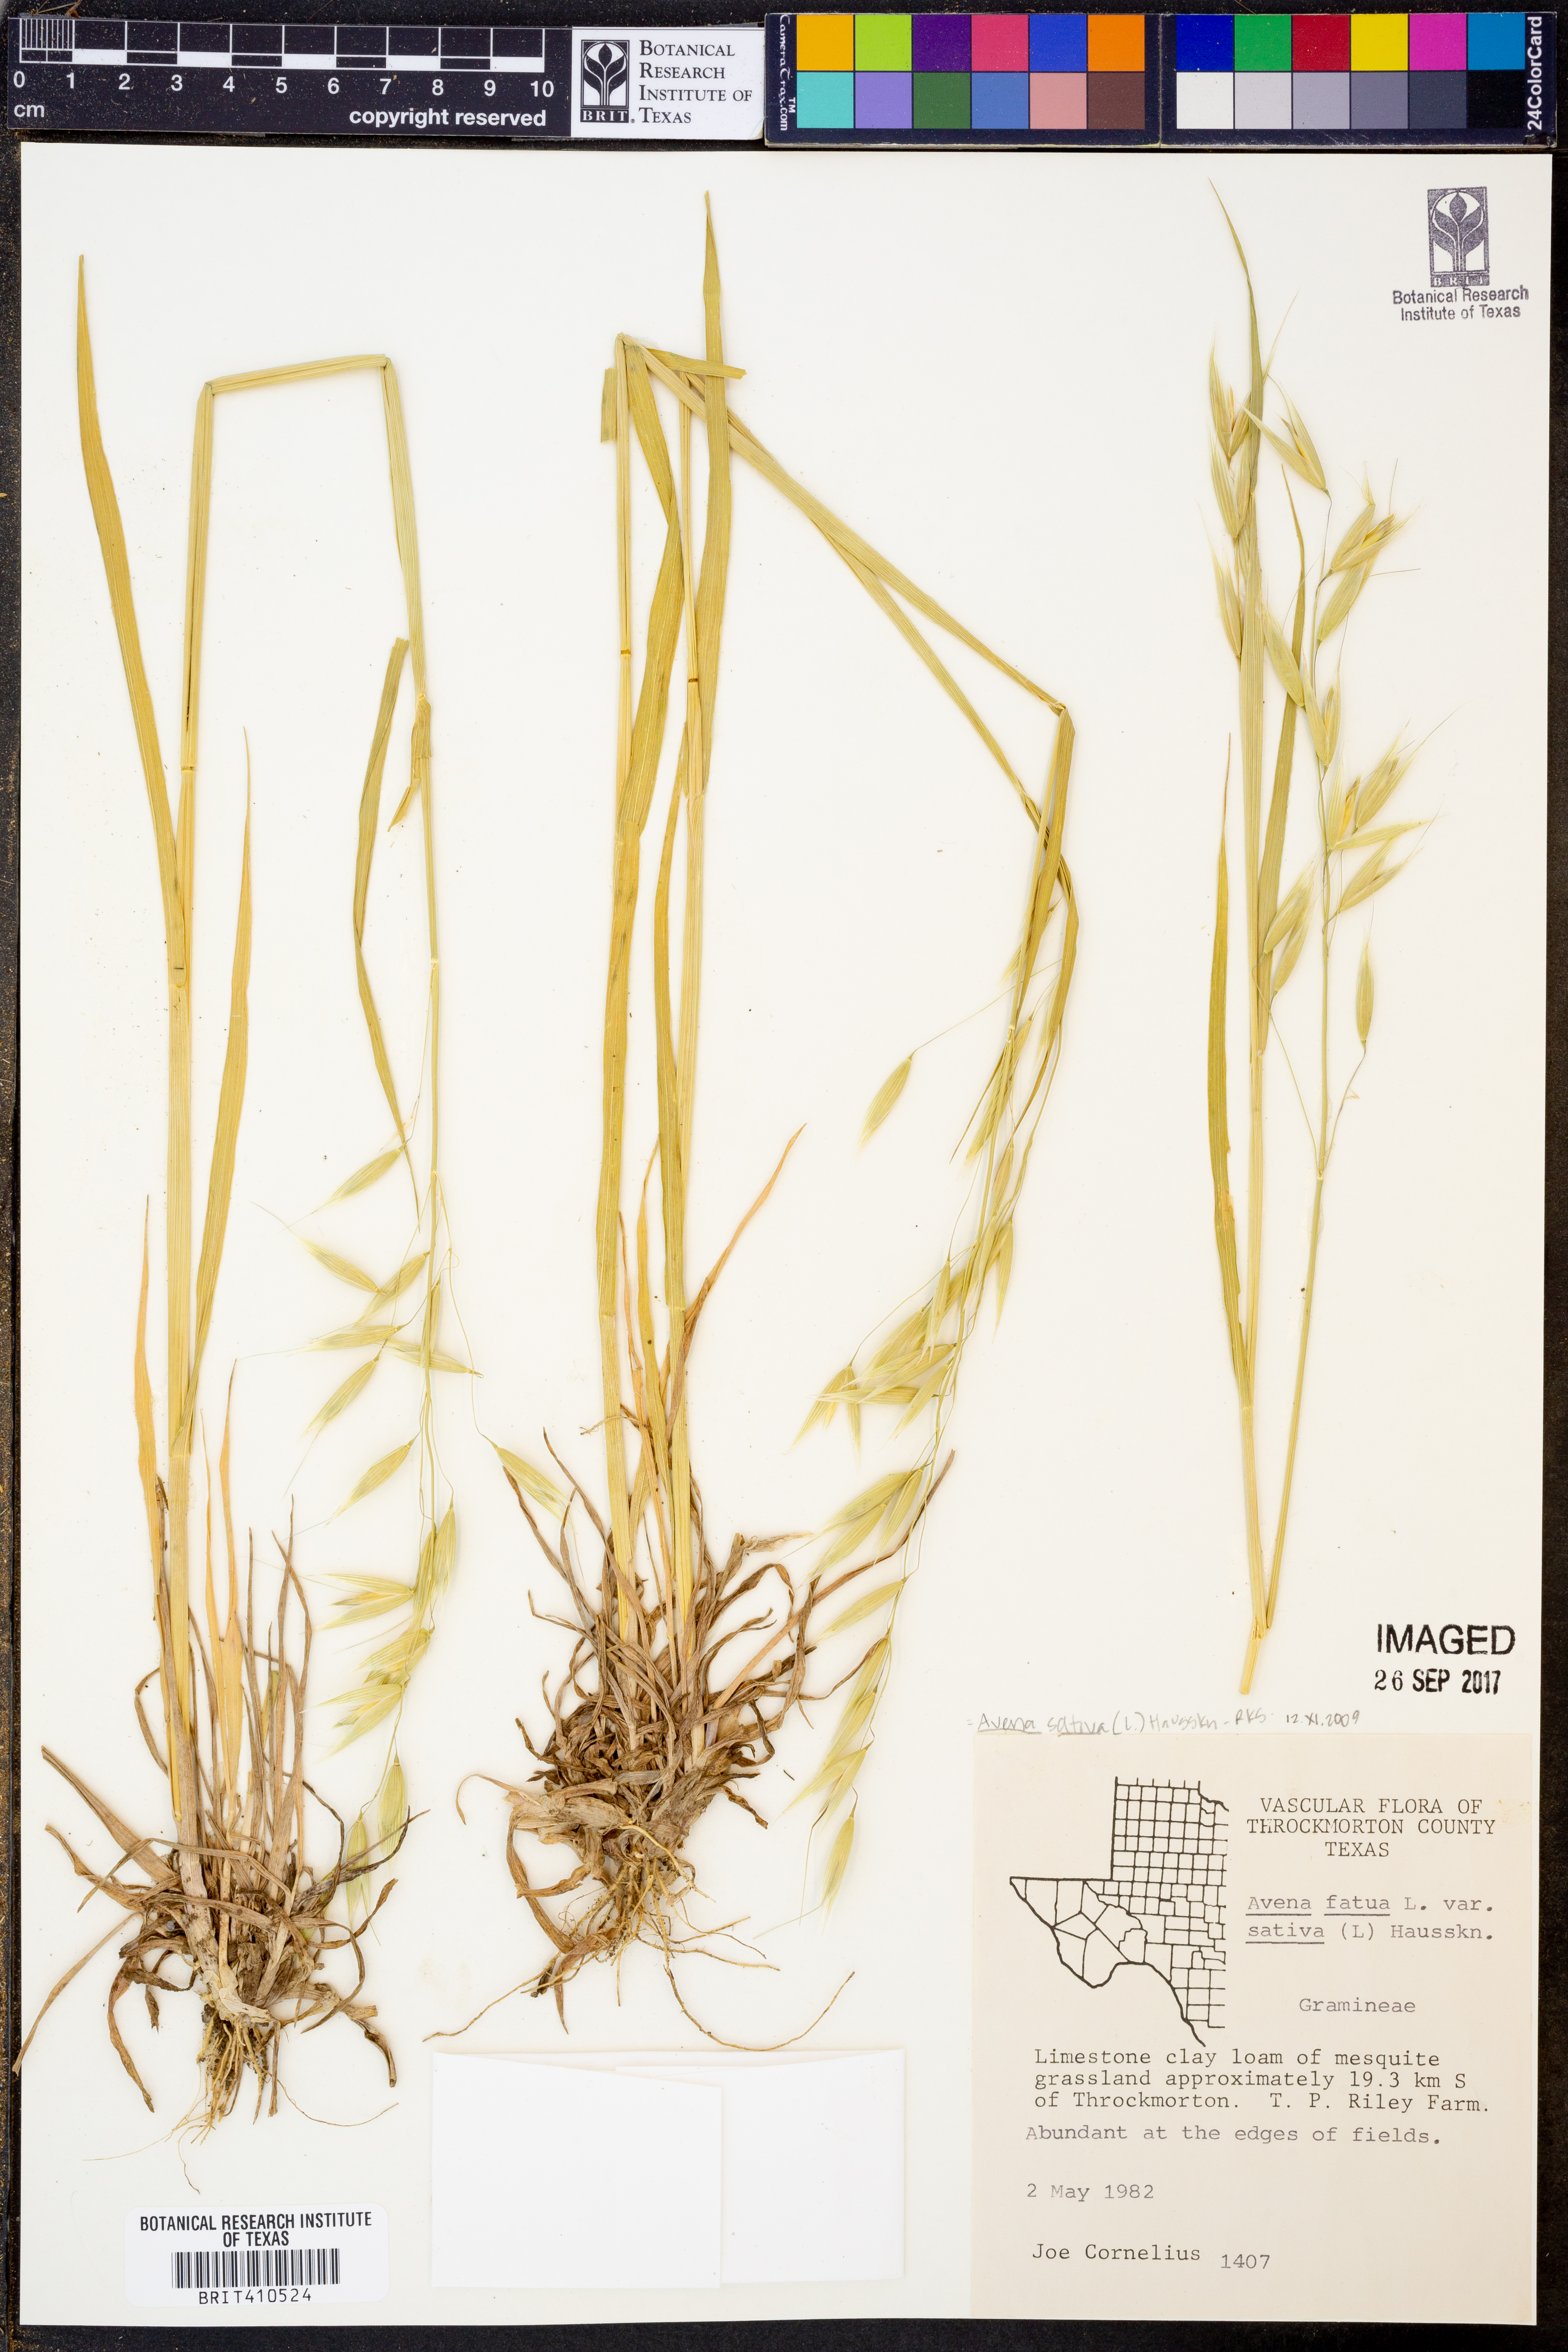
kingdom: Plantae
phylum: Tracheophyta
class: Liliopsida
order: Poales
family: Poaceae
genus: Avena
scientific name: Avena sativa
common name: Oat
